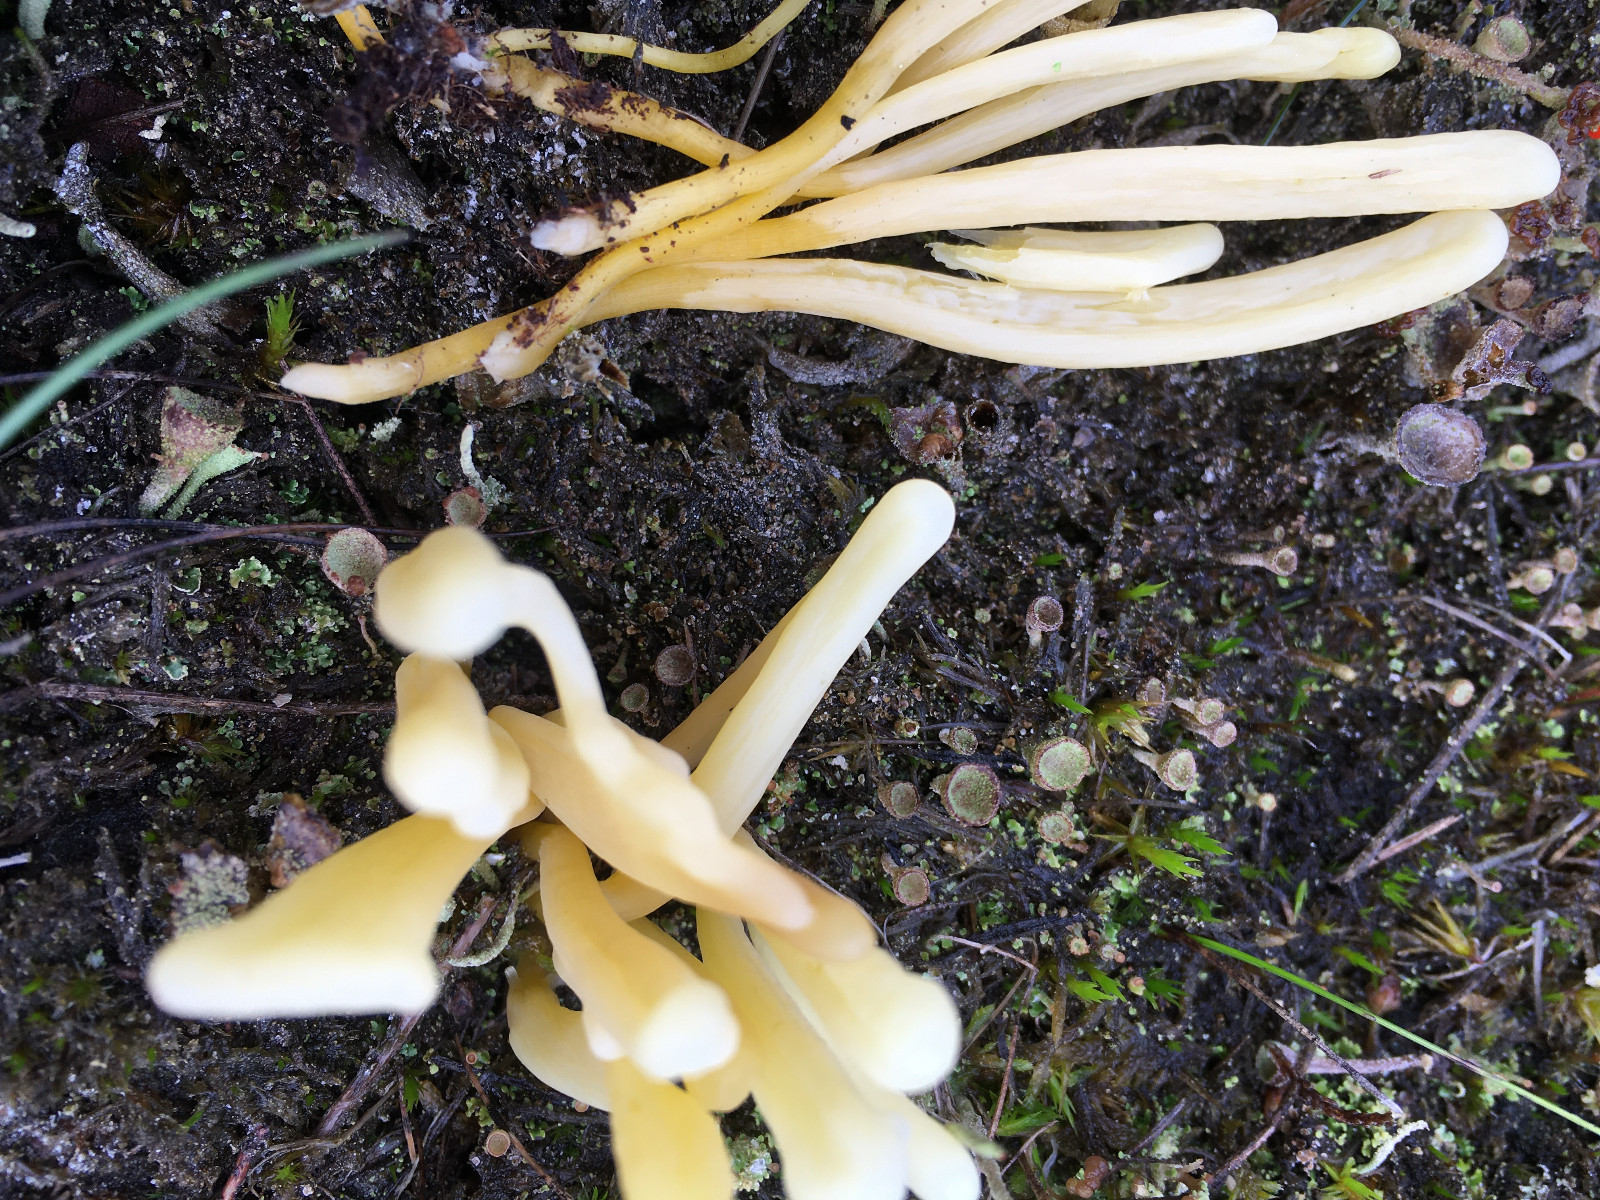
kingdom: Fungi
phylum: Basidiomycota
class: Agaricomycetes
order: Agaricales
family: Clavariaceae
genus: Clavaria
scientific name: Clavaria argillacea
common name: lerfarvet køllesvamp
